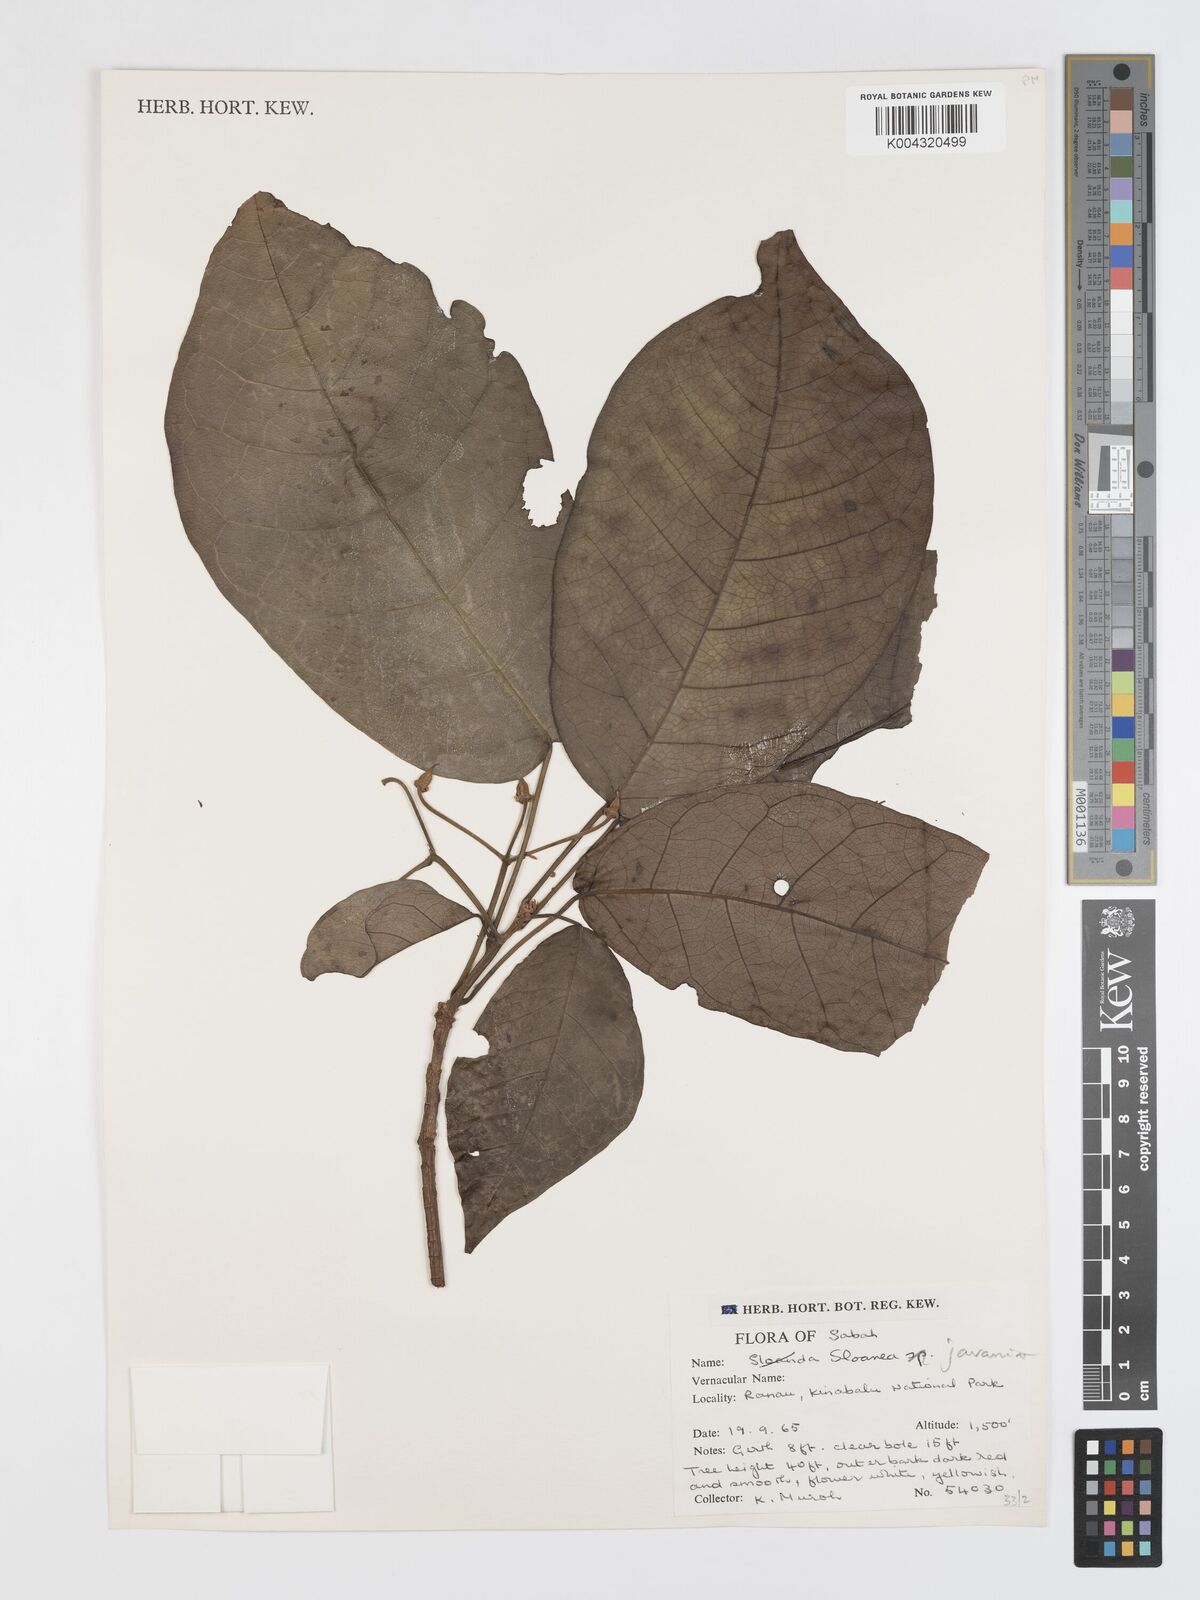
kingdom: Plantae
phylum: Tracheophyta
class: Magnoliopsida
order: Oxalidales
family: Elaeocarpaceae
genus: Sloanea
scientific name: Sloanea javanica
